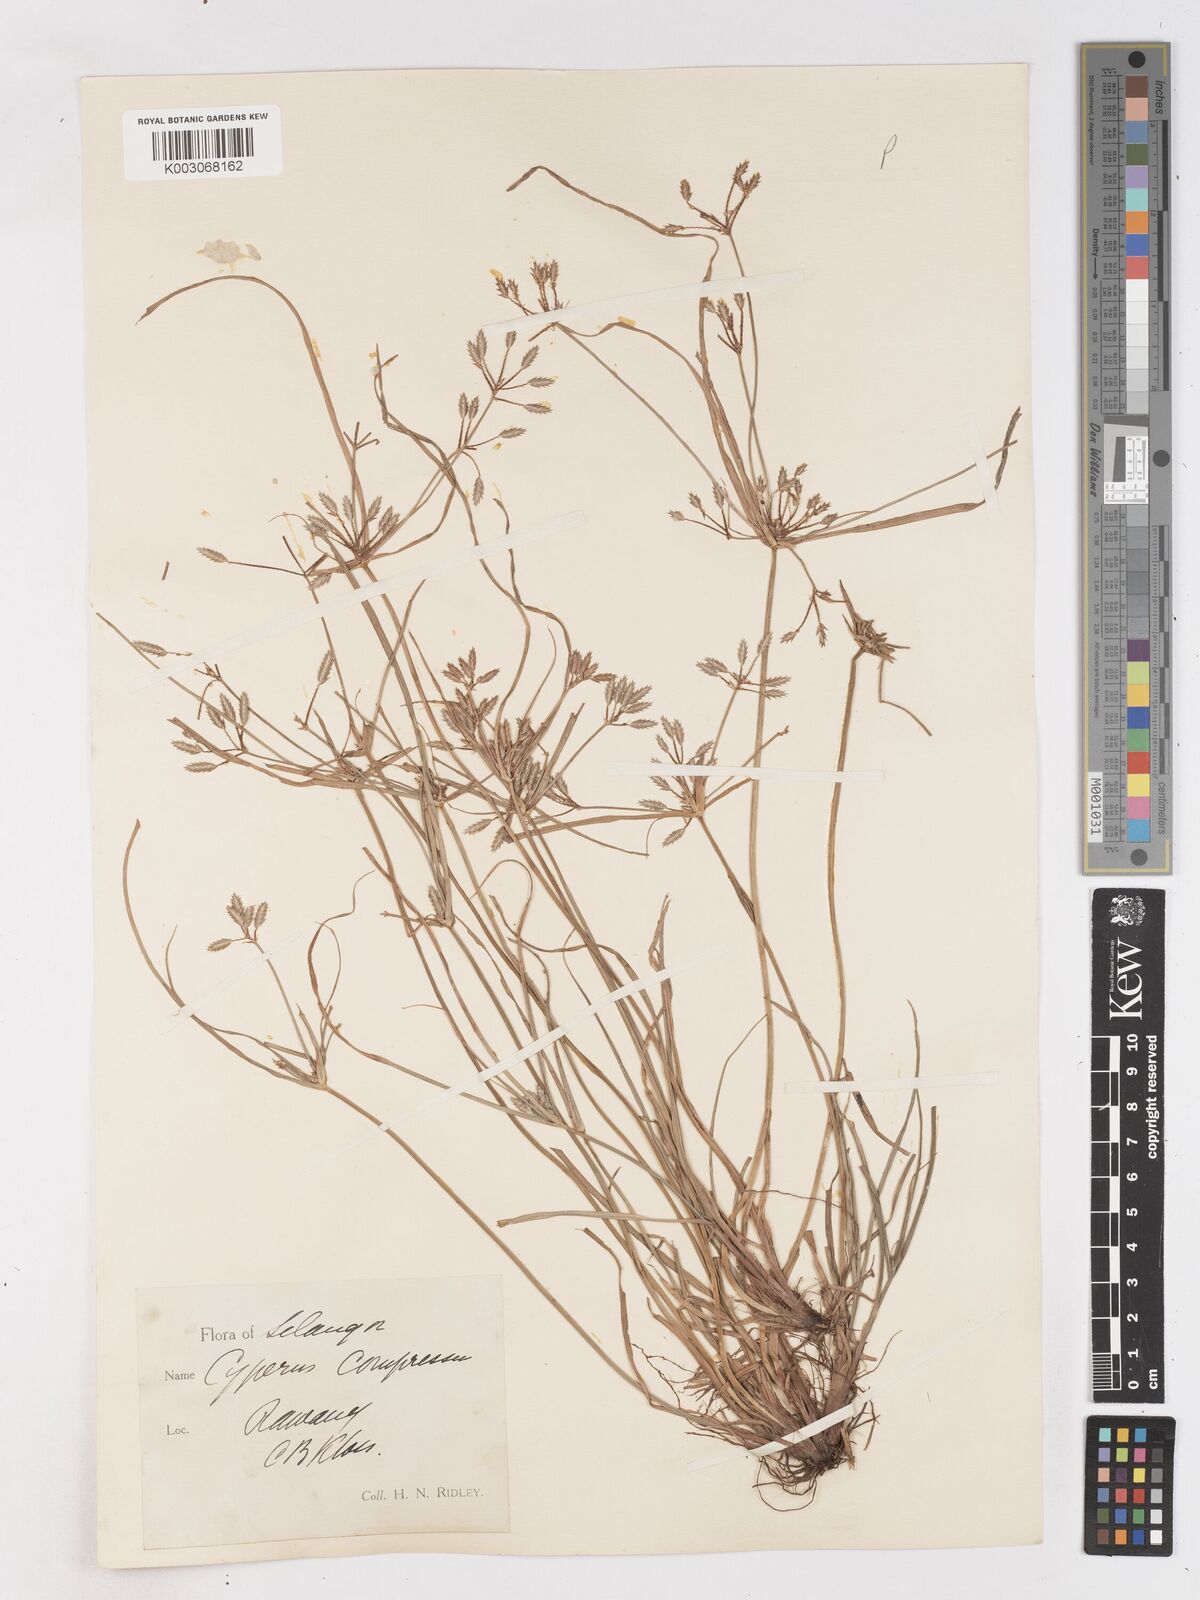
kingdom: Plantae
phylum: Tracheophyta
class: Liliopsida
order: Poales
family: Cyperaceae
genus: Cyperus
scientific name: Cyperus compressus
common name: Poorland flatsedge
